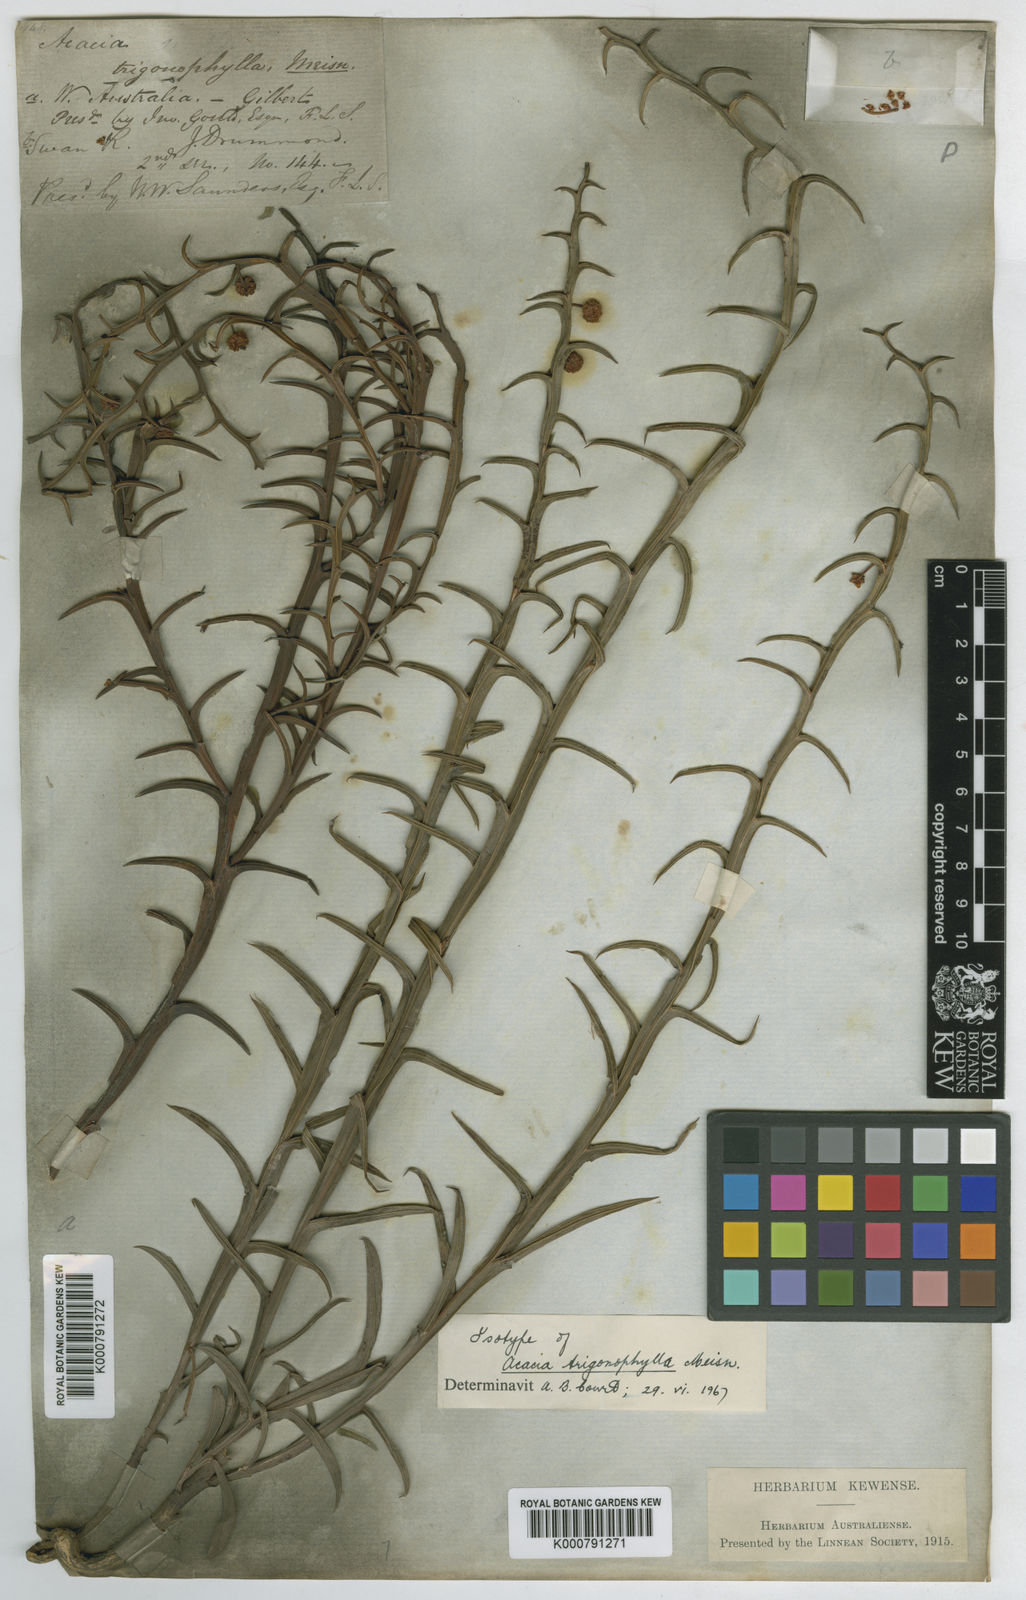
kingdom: Plantae
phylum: Tracheophyta
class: Magnoliopsida
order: Fabales
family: Fabaceae
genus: Acacia
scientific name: Acacia trigonophylla
